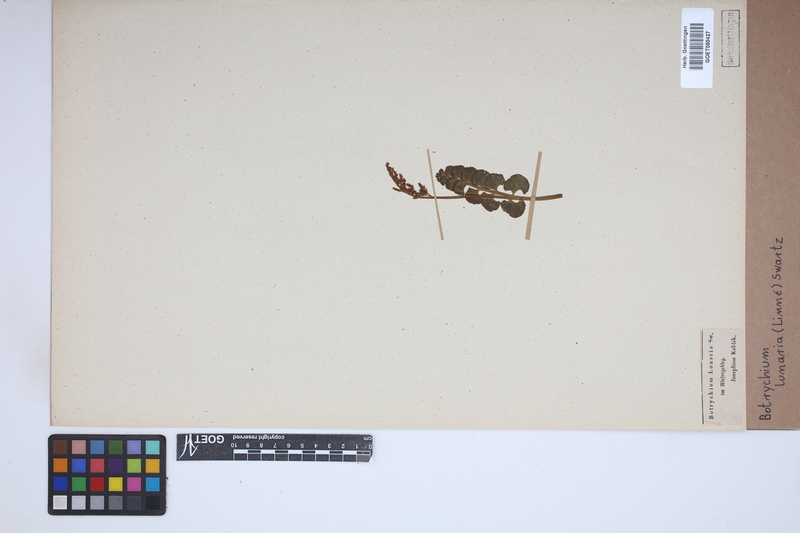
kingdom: Plantae
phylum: Tracheophyta
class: Polypodiopsida
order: Ophioglossales
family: Ophioglossaceae
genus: Botrychium
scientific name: Botrychium lunaria
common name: Moonwort
